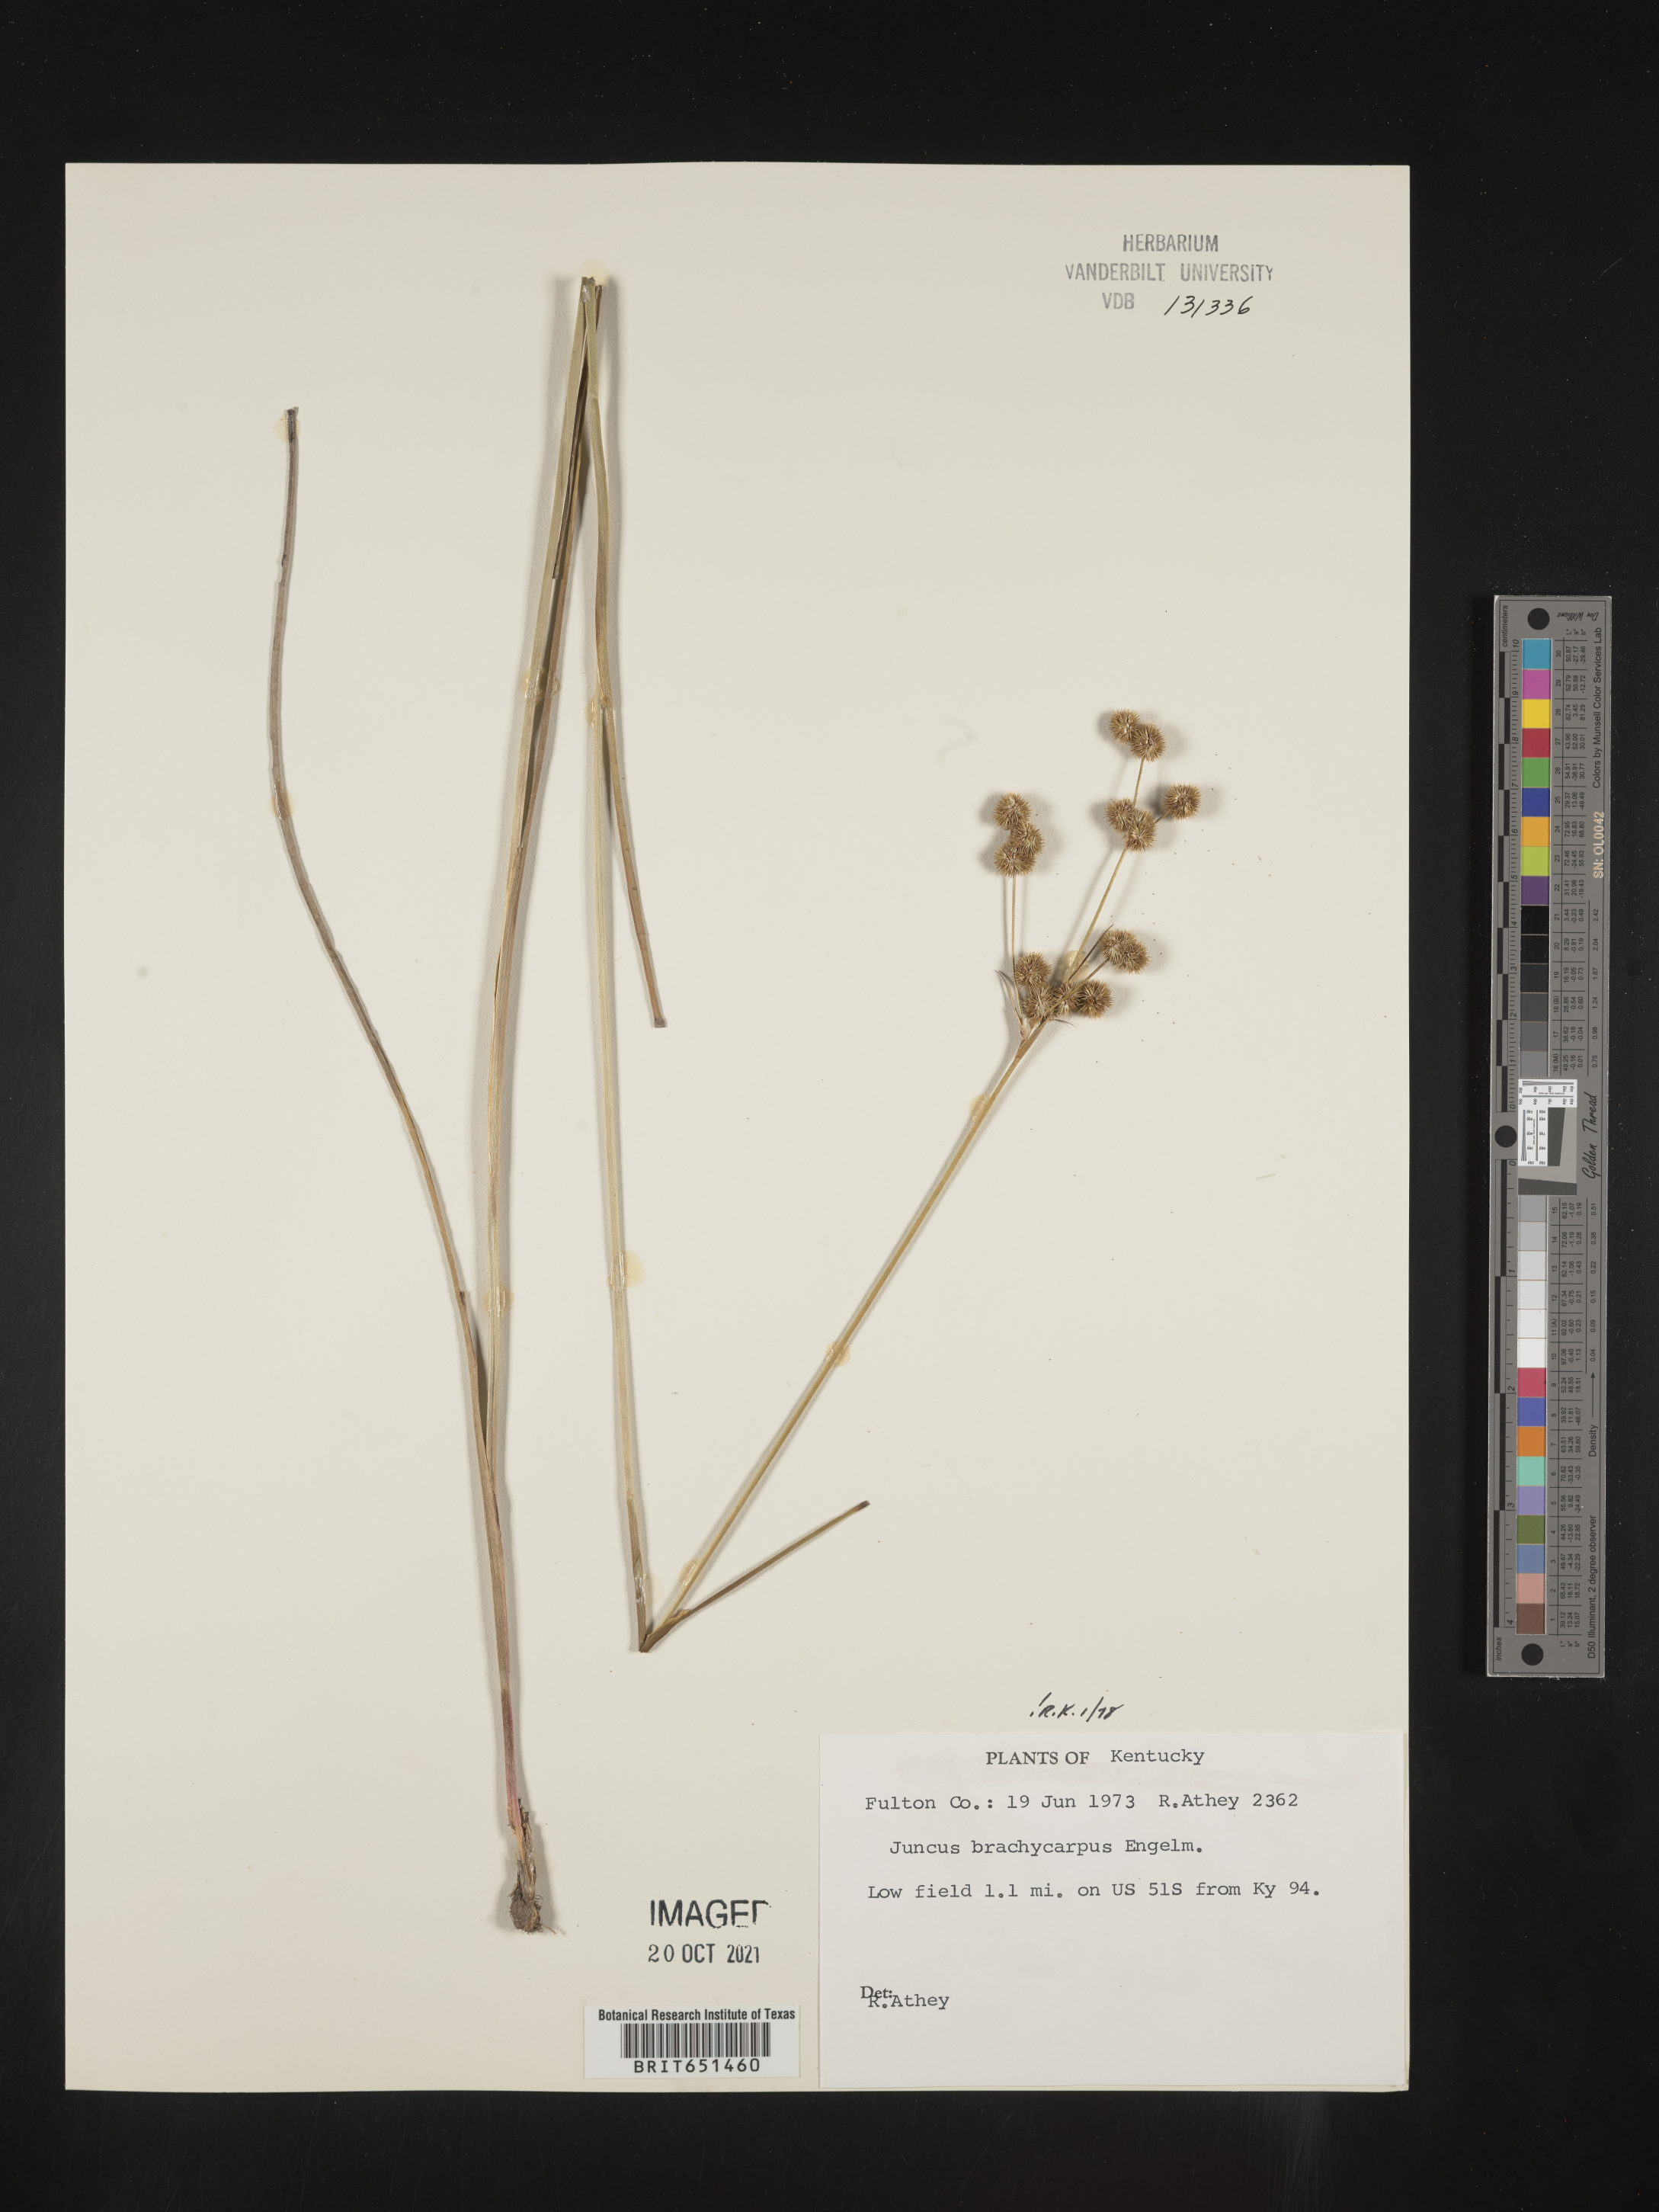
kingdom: Plantae
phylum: Tracheophyta
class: Liliopsida
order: Poales
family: Juncaceae
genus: Juncus
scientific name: Juncus brachycarpus
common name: Shore rush
